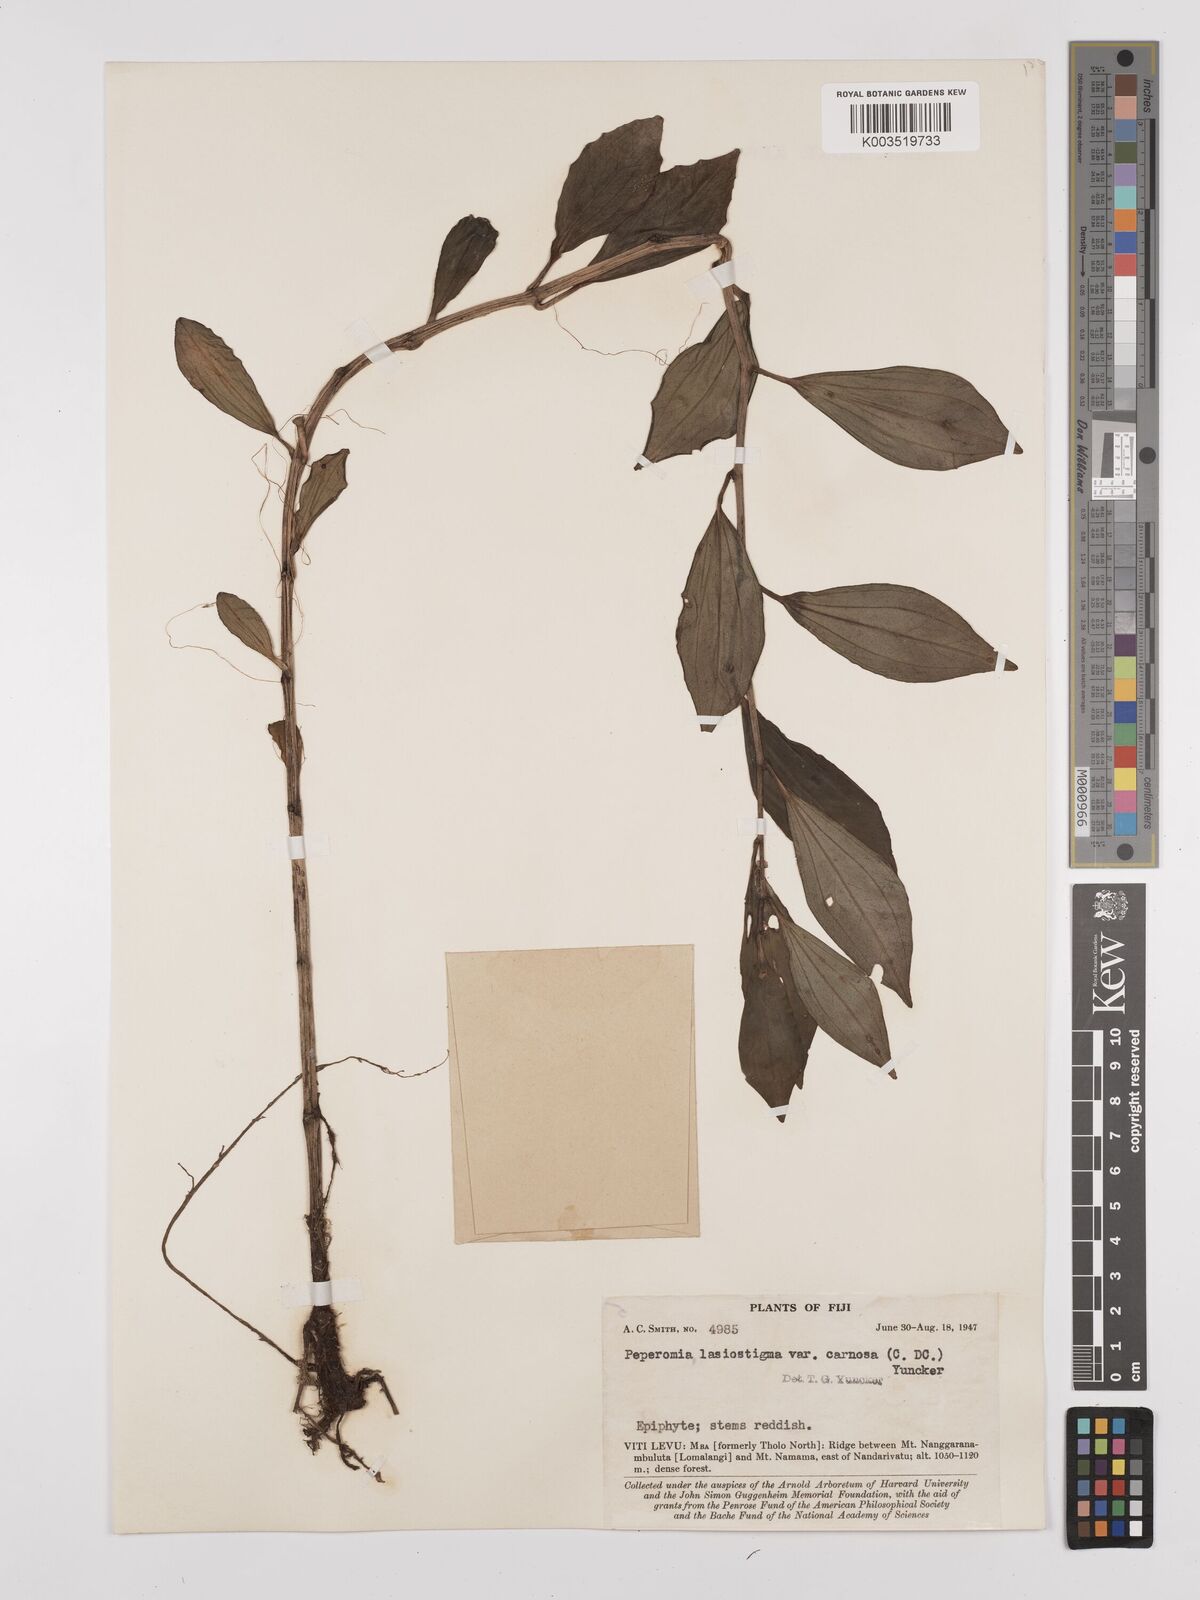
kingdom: Plantae
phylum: Tracheophyta
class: Magnoliopsida
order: Piperales
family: Piperaceae
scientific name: Piperaceae
